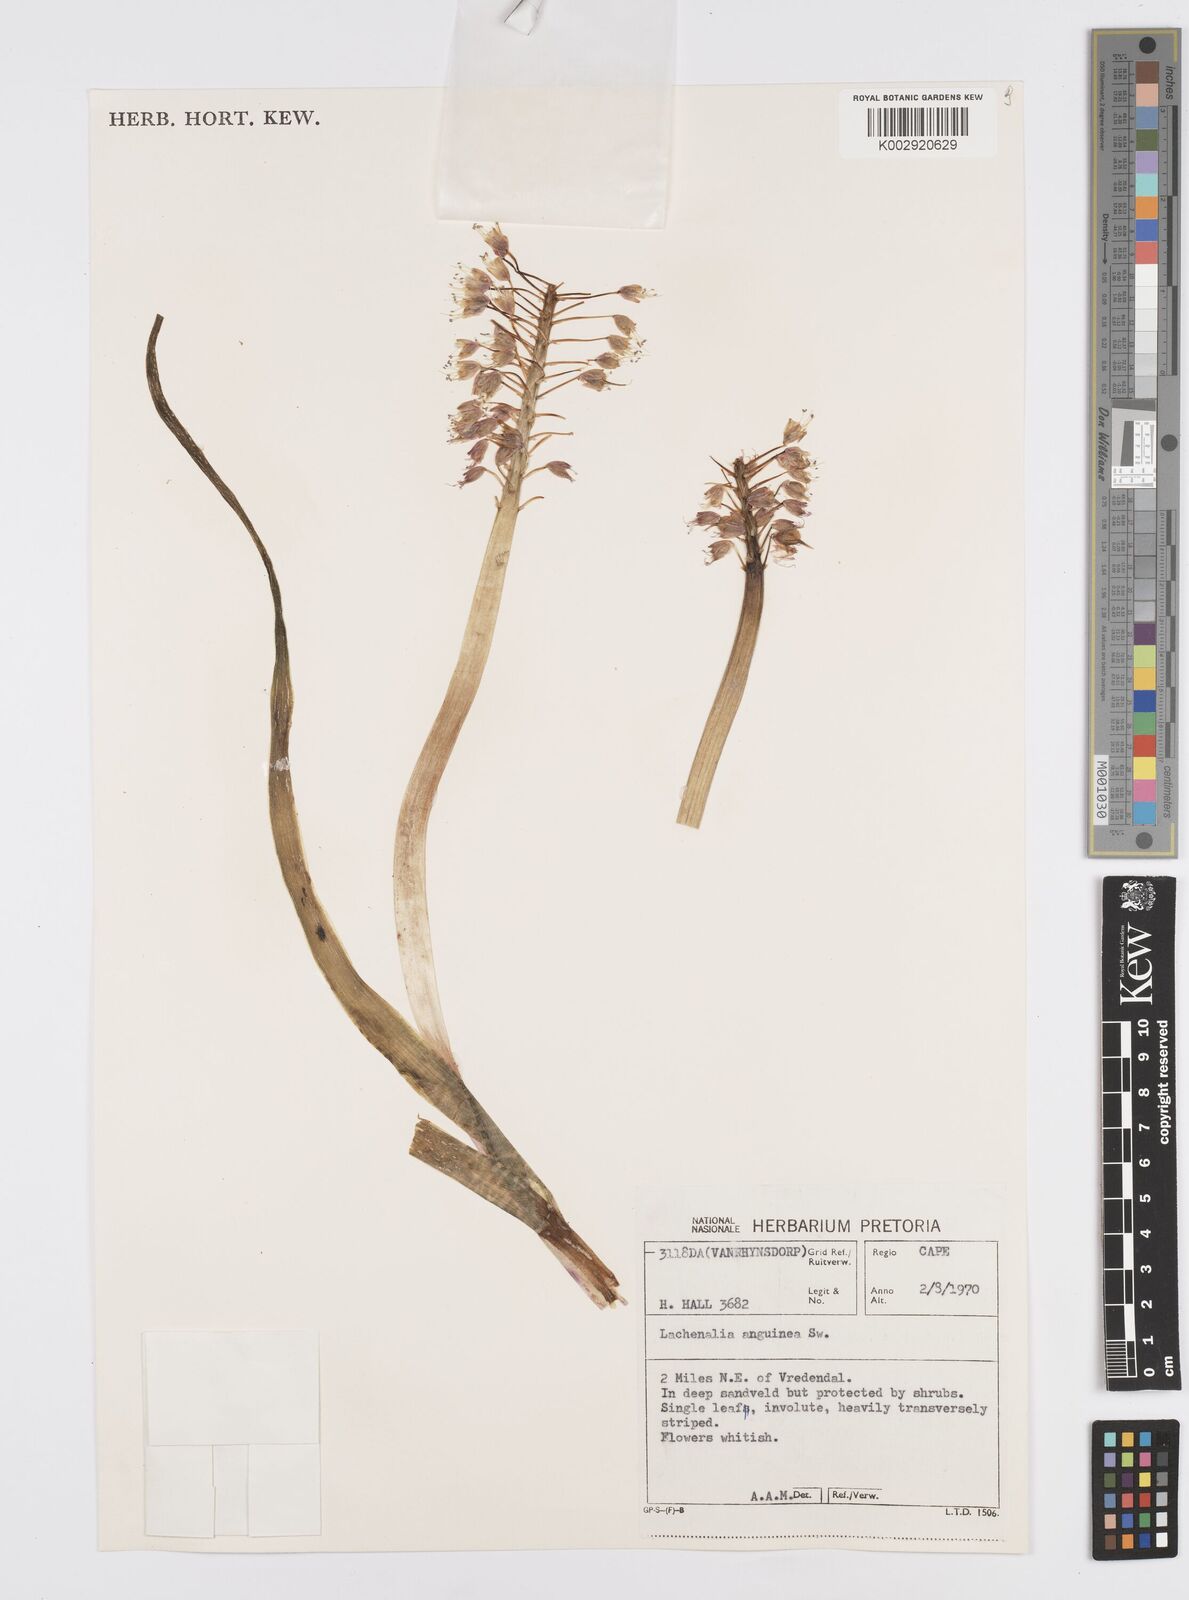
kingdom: Plantae
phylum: Tracheophyta
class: Liliopsida
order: Asparagales
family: Asparagaceae
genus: Lachenalia
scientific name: Lachenalia anguinea
